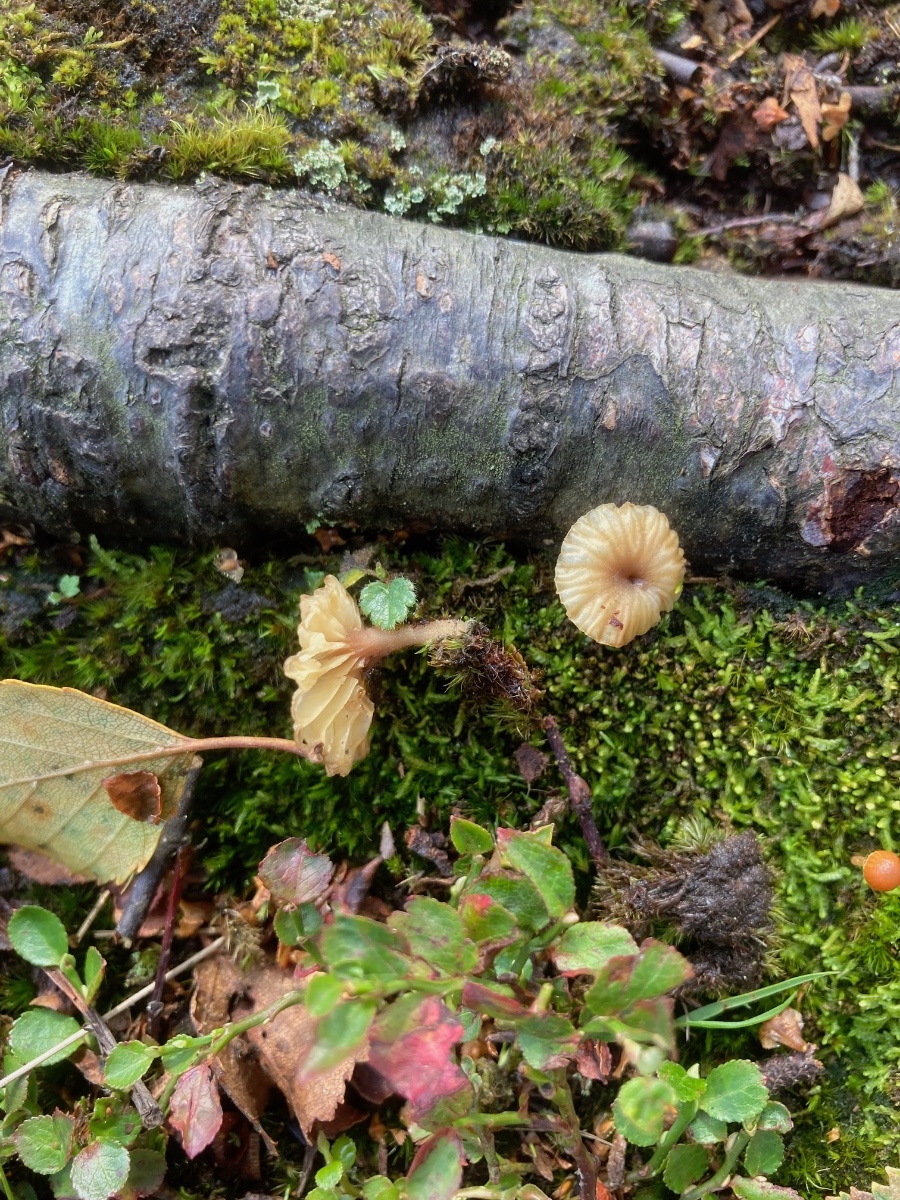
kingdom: Fungi
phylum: Basidiomycota
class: Agaricomycetes
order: Agaricales
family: Hygrophoraceae
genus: Lichenomphalia
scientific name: Lichenomphalia umbellifera
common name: tørve-lavhat
